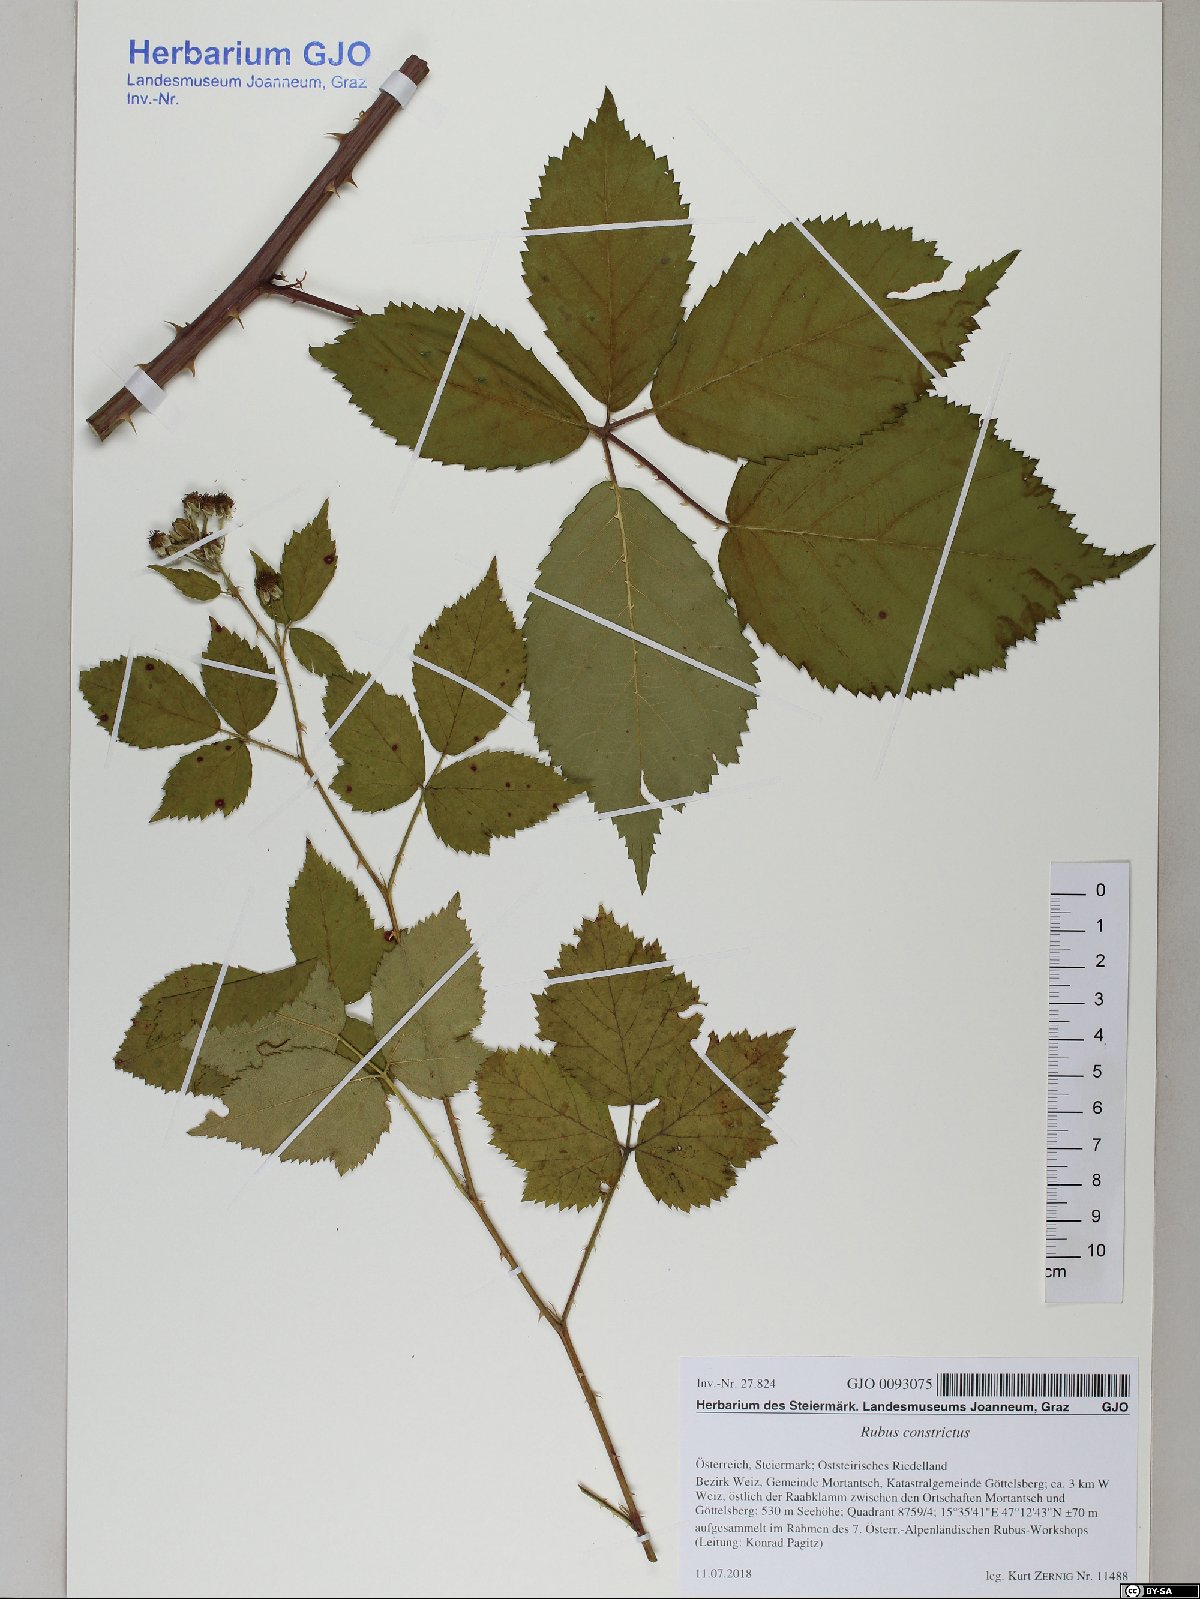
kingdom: Plantae
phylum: Tracheophyta
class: Magnoliopsida
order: Rosales
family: Rosaceae
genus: Rubus
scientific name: Rubus constrictus
